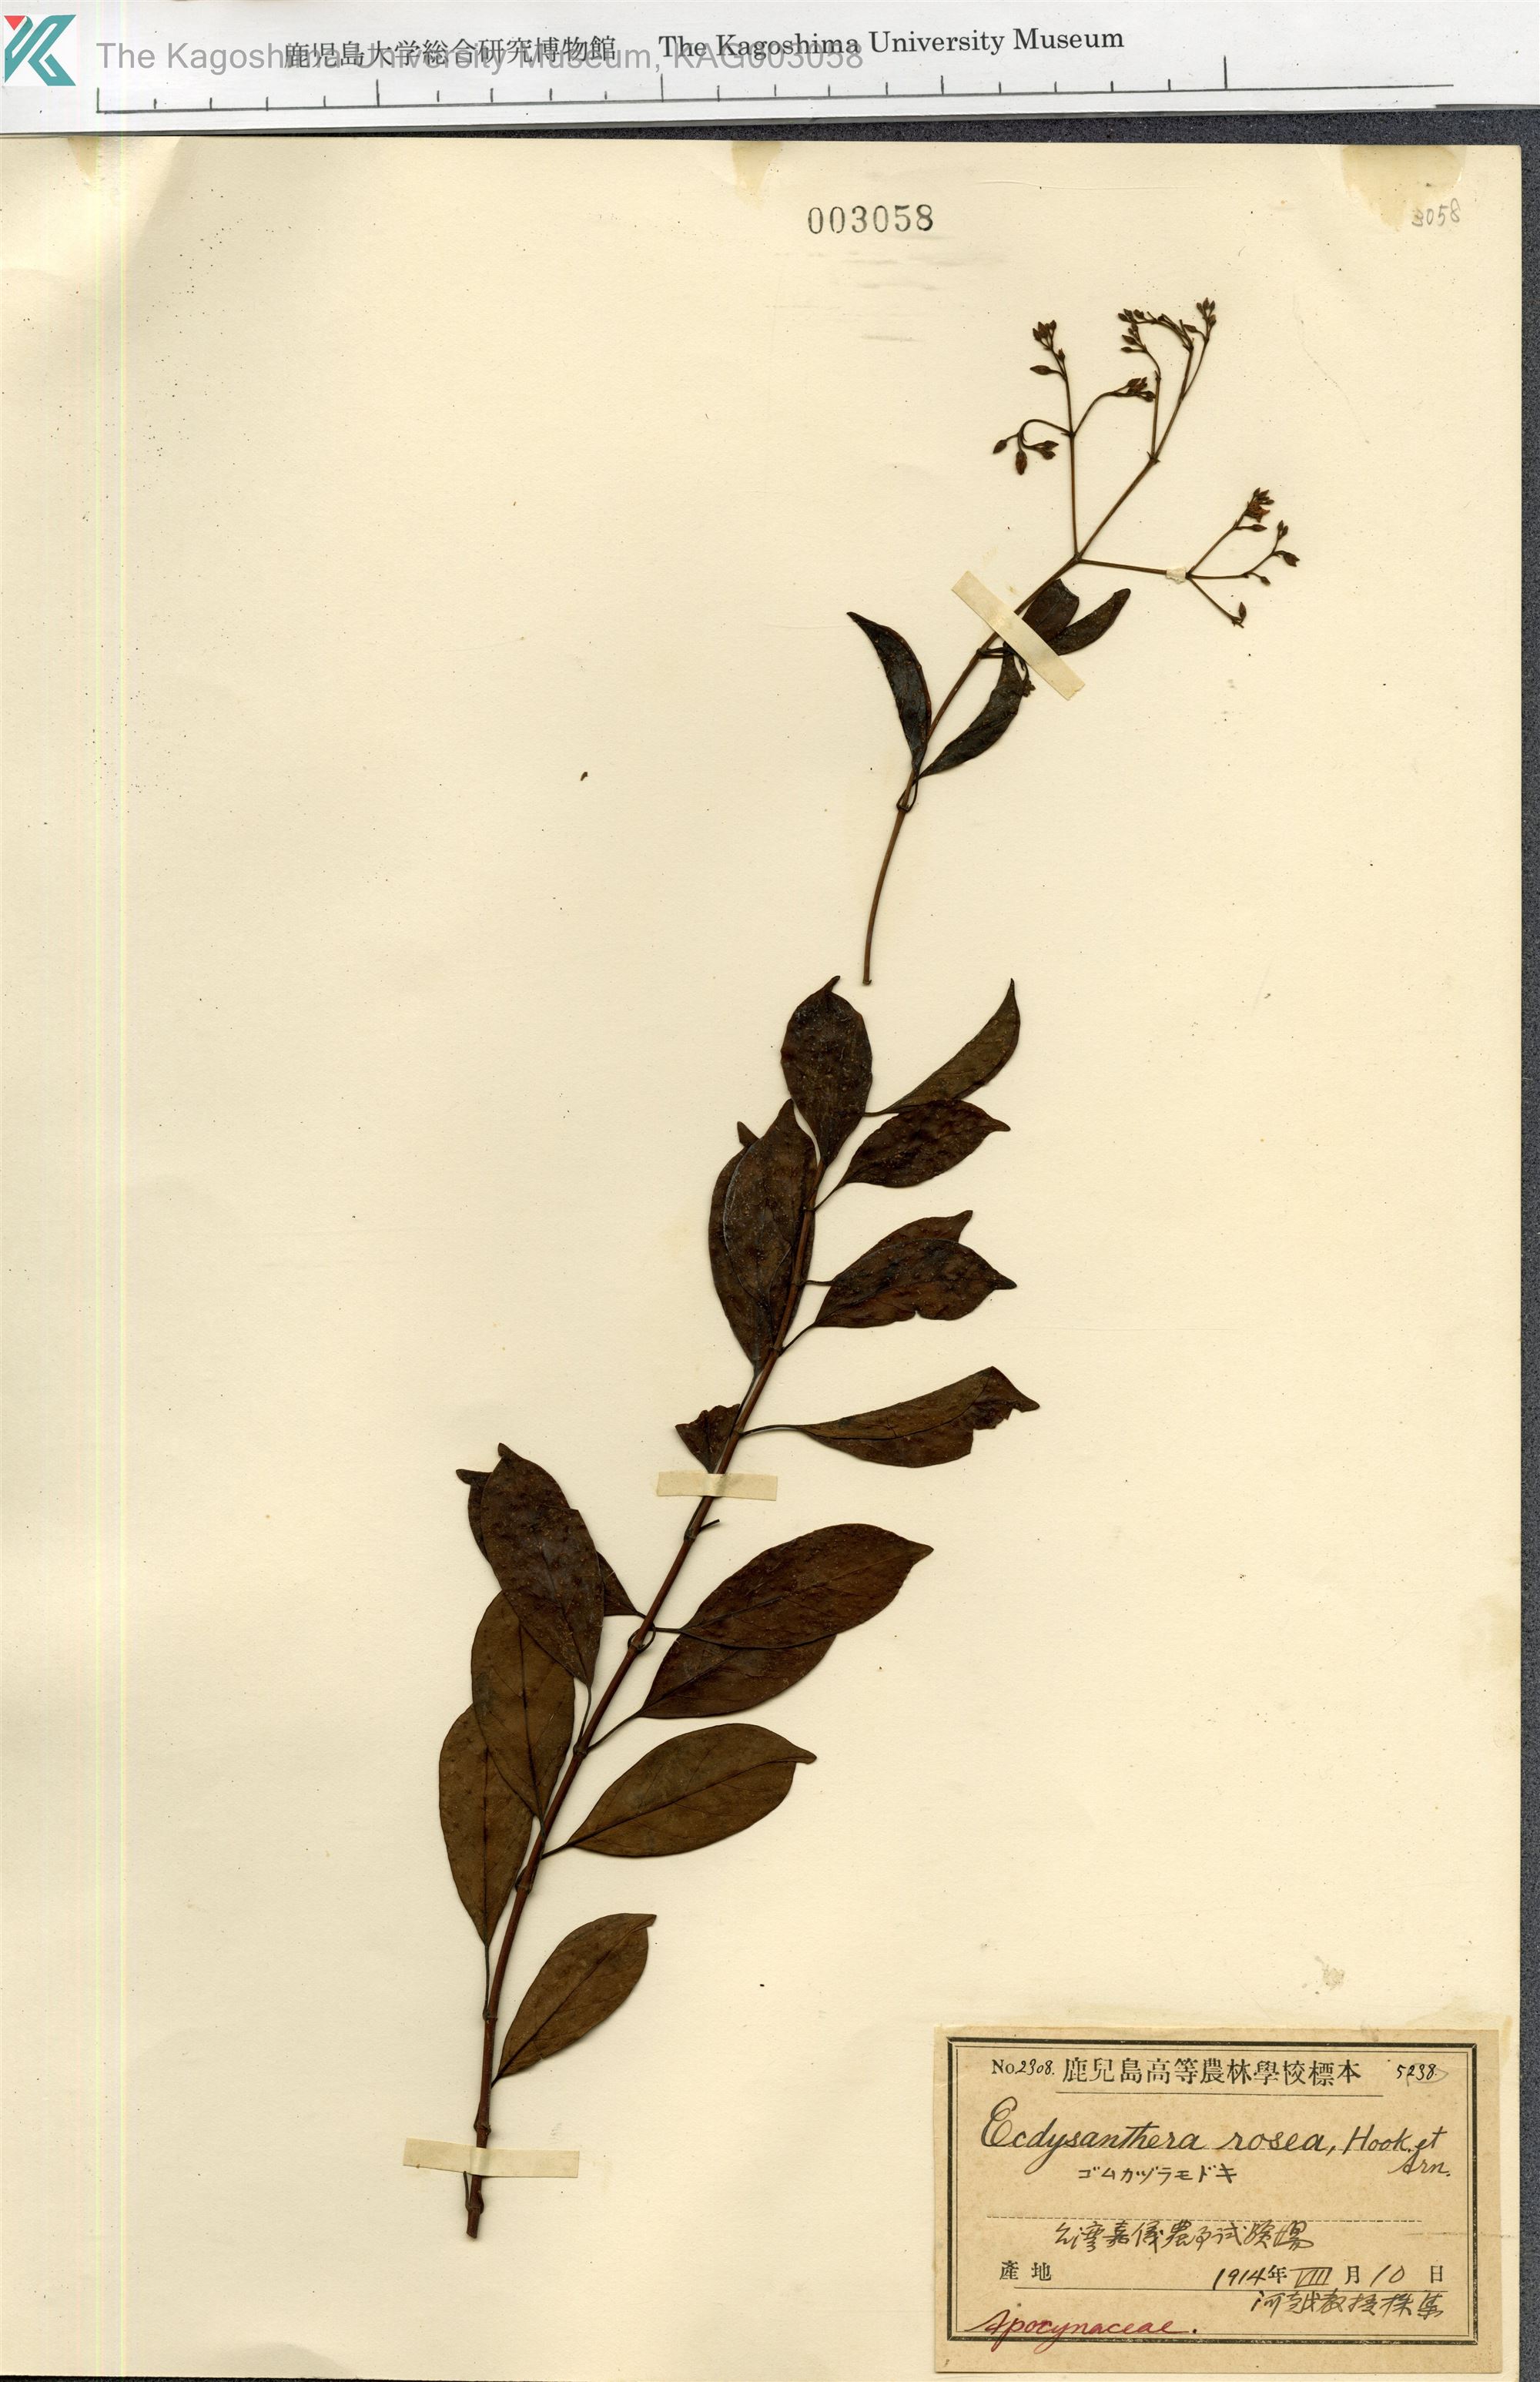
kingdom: Plantae
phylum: Tracheophyta
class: Magnoliopsida
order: Gentianales
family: Apocynaceae
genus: Urceola
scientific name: Urceola rosea
